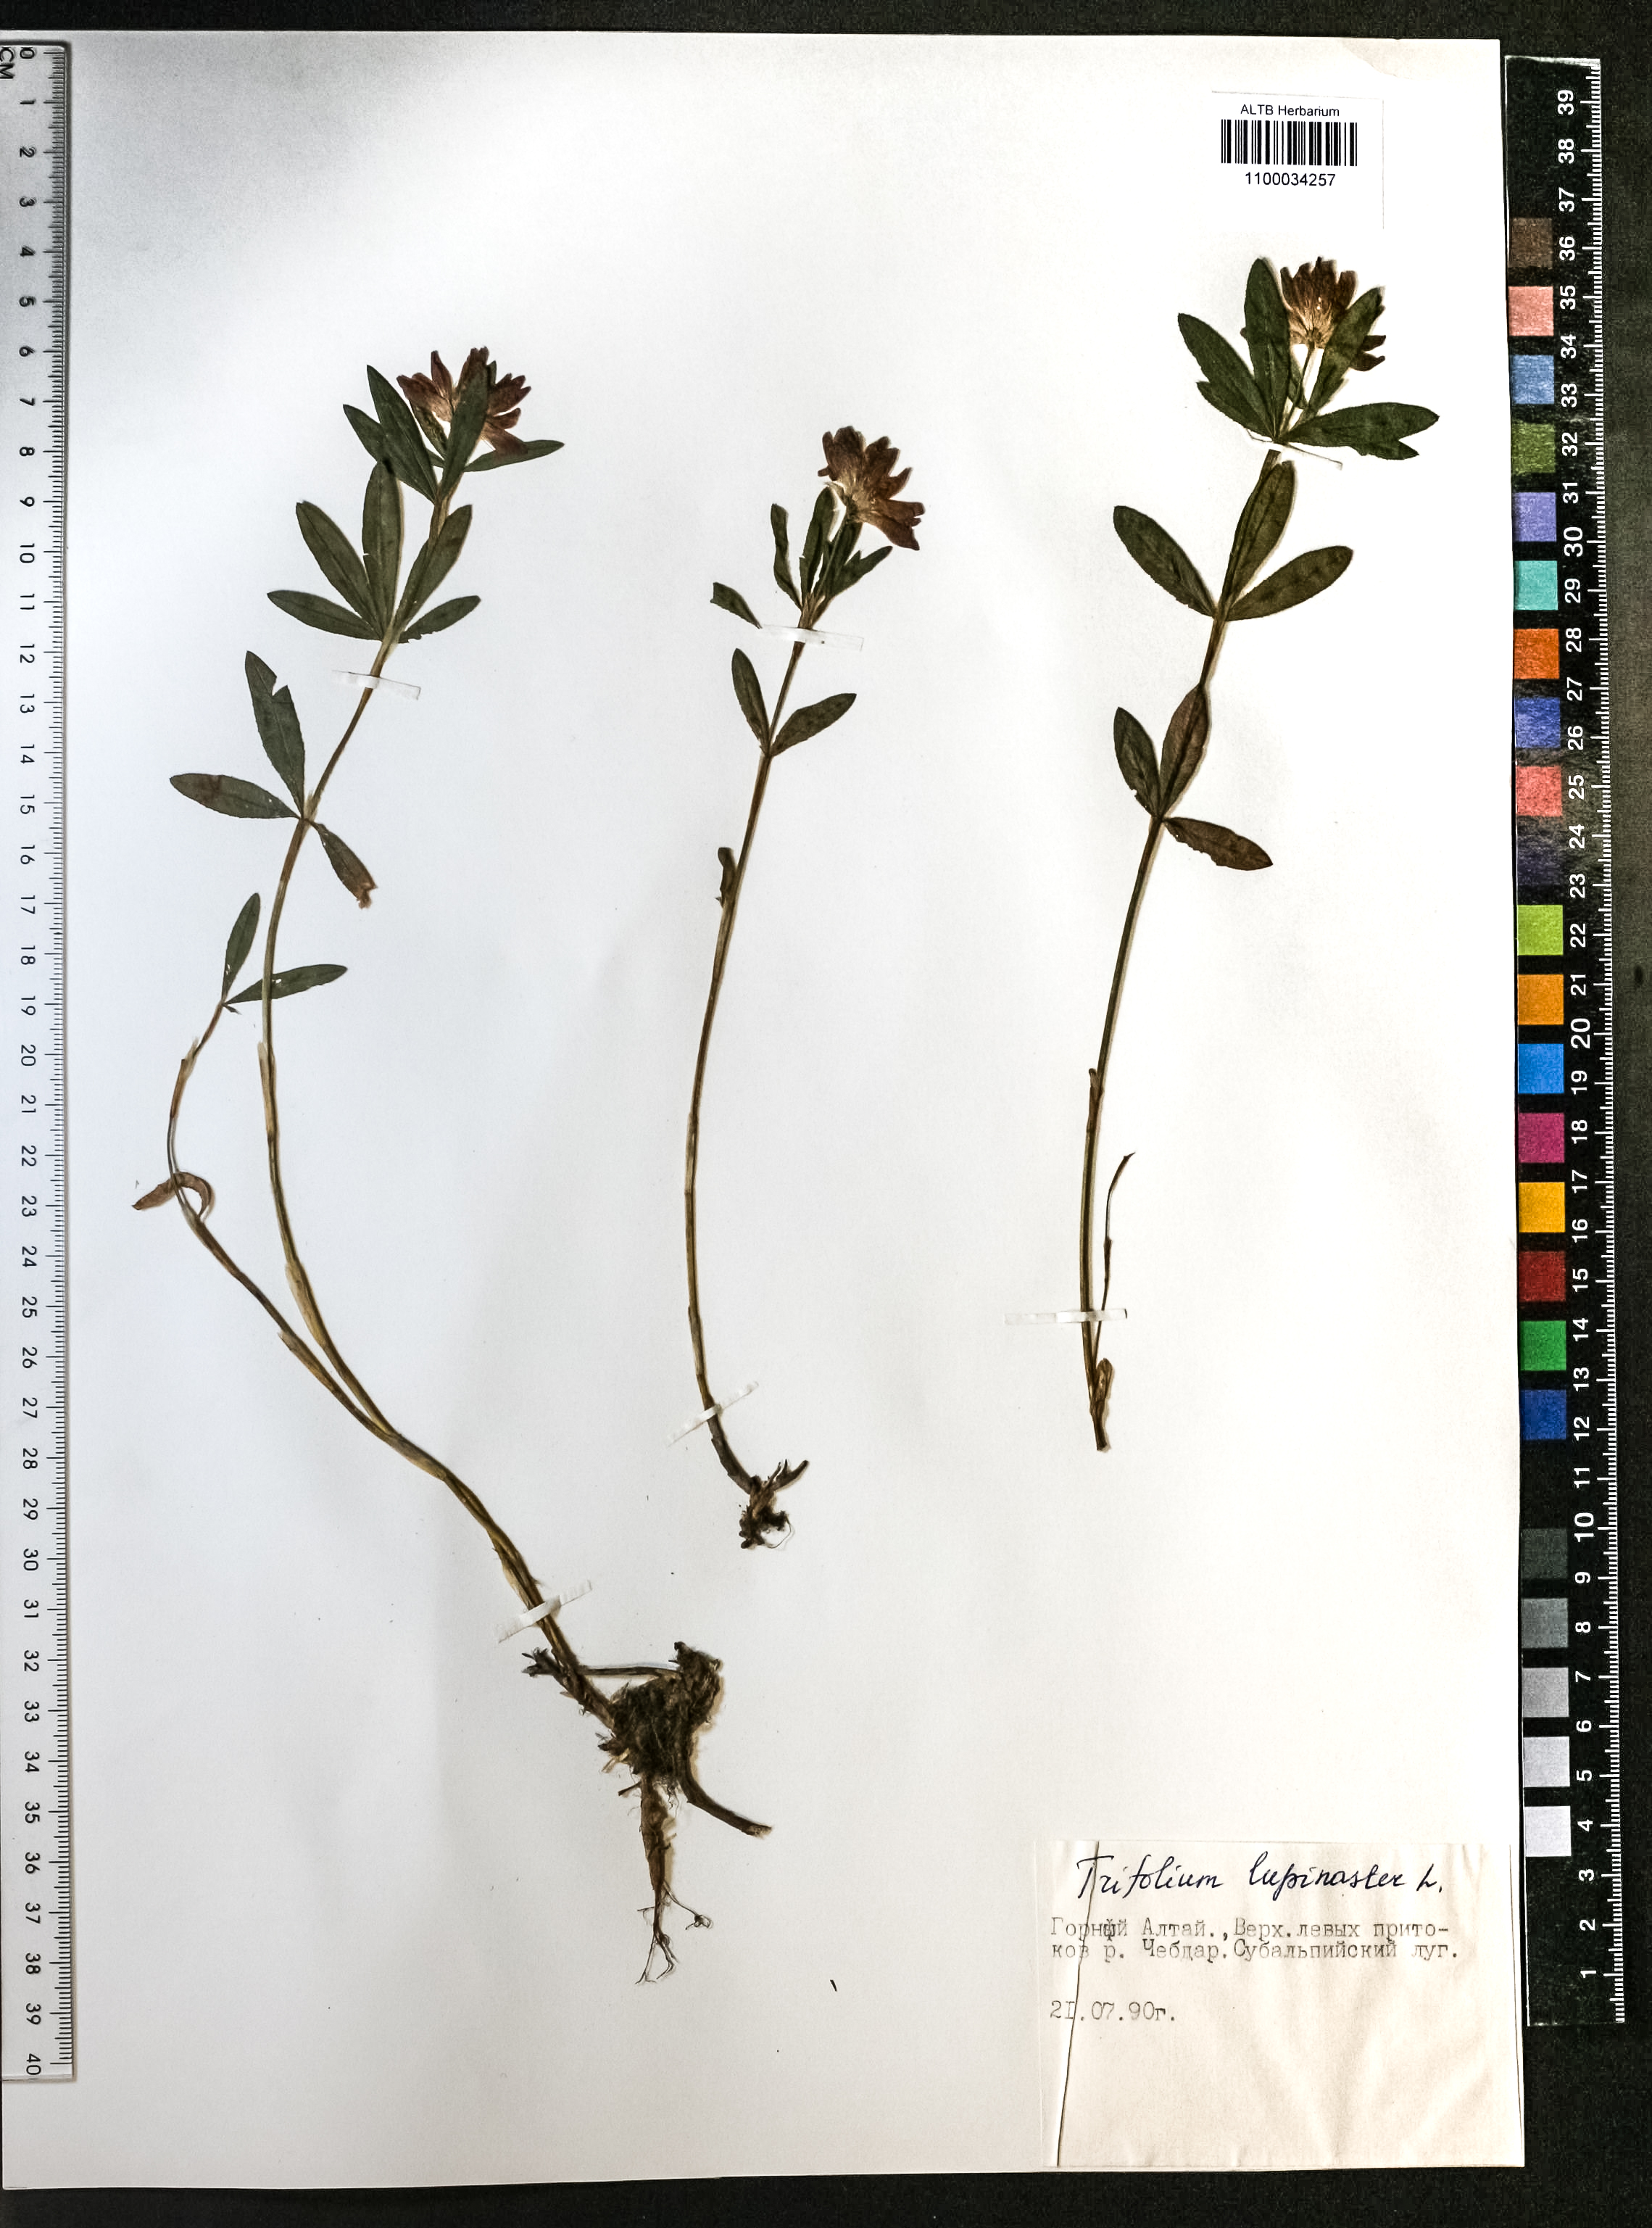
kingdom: Plantae
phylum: Tracheophyta
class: Magnoliopsida
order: Fabales
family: Fabaceae
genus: Trifolium
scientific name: Trifolium lupinaster
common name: Lupine clover
